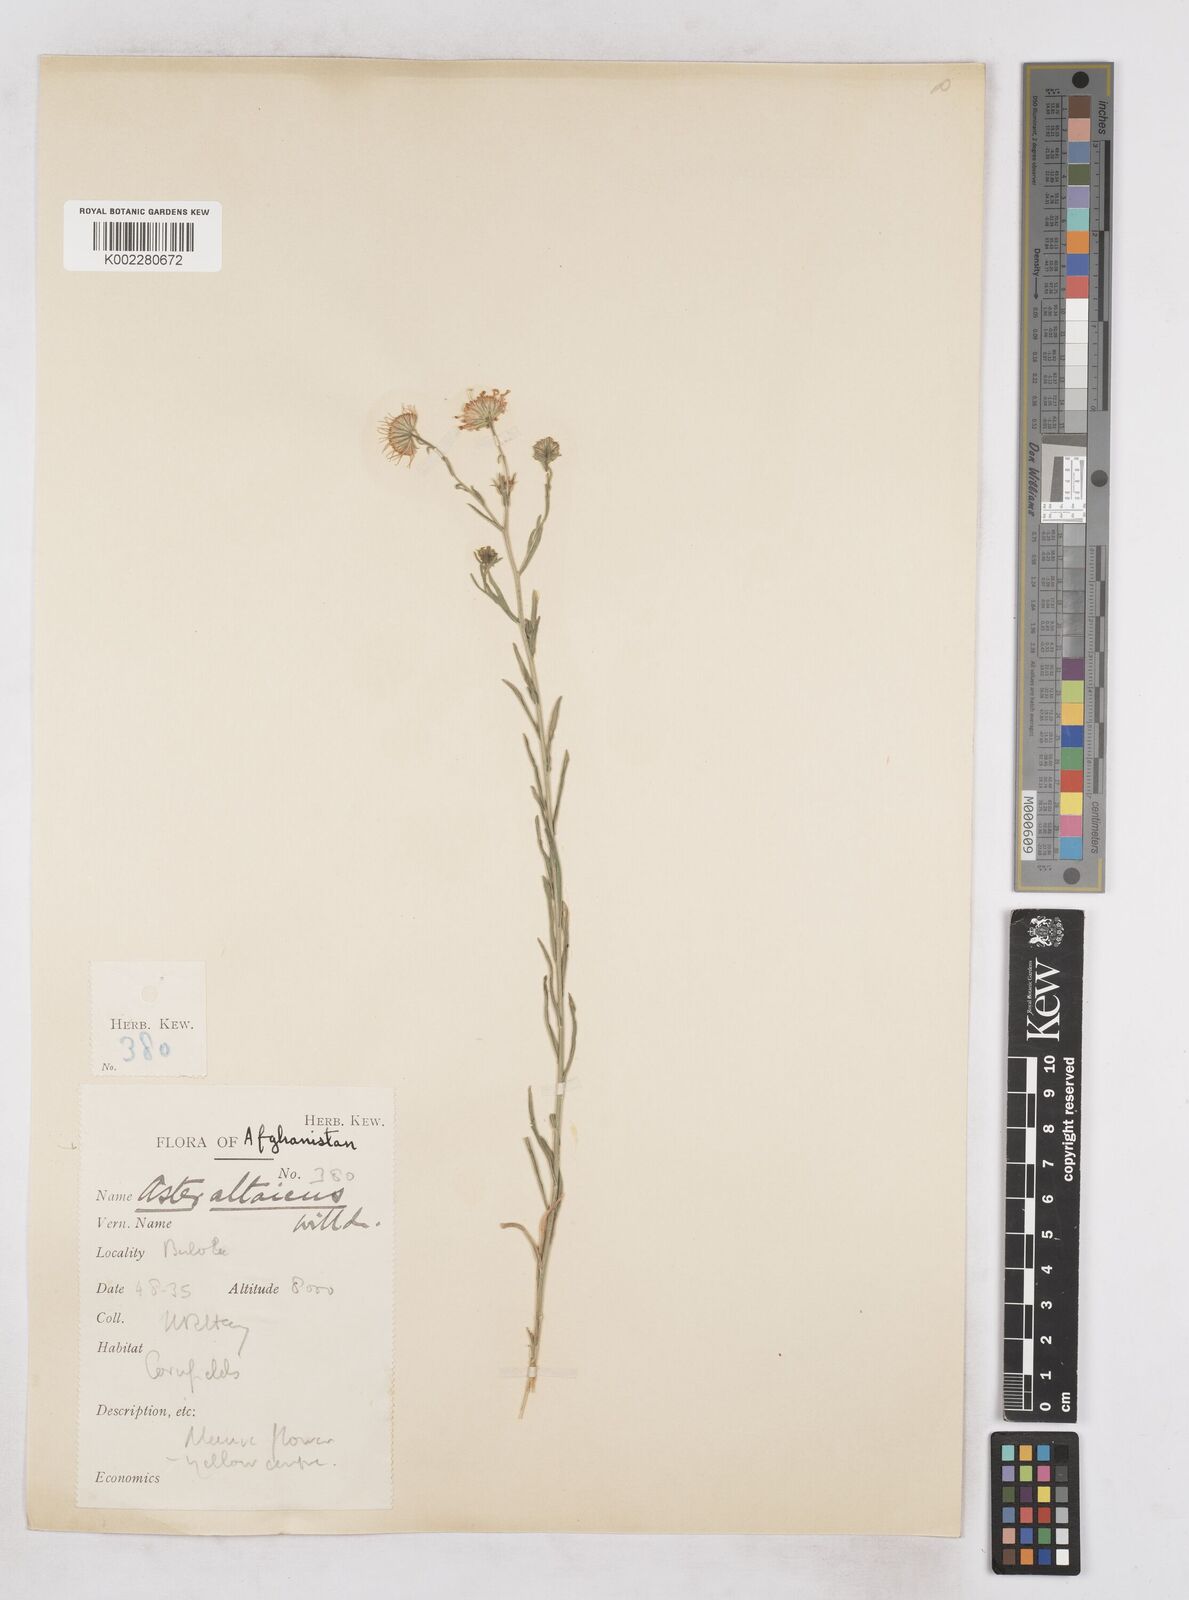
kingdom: Plantae
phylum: Tracheophyta
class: Magnoliopsida
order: Asterales
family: Asteraceae
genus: Heteropappus
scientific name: Heteropappus altaicus
